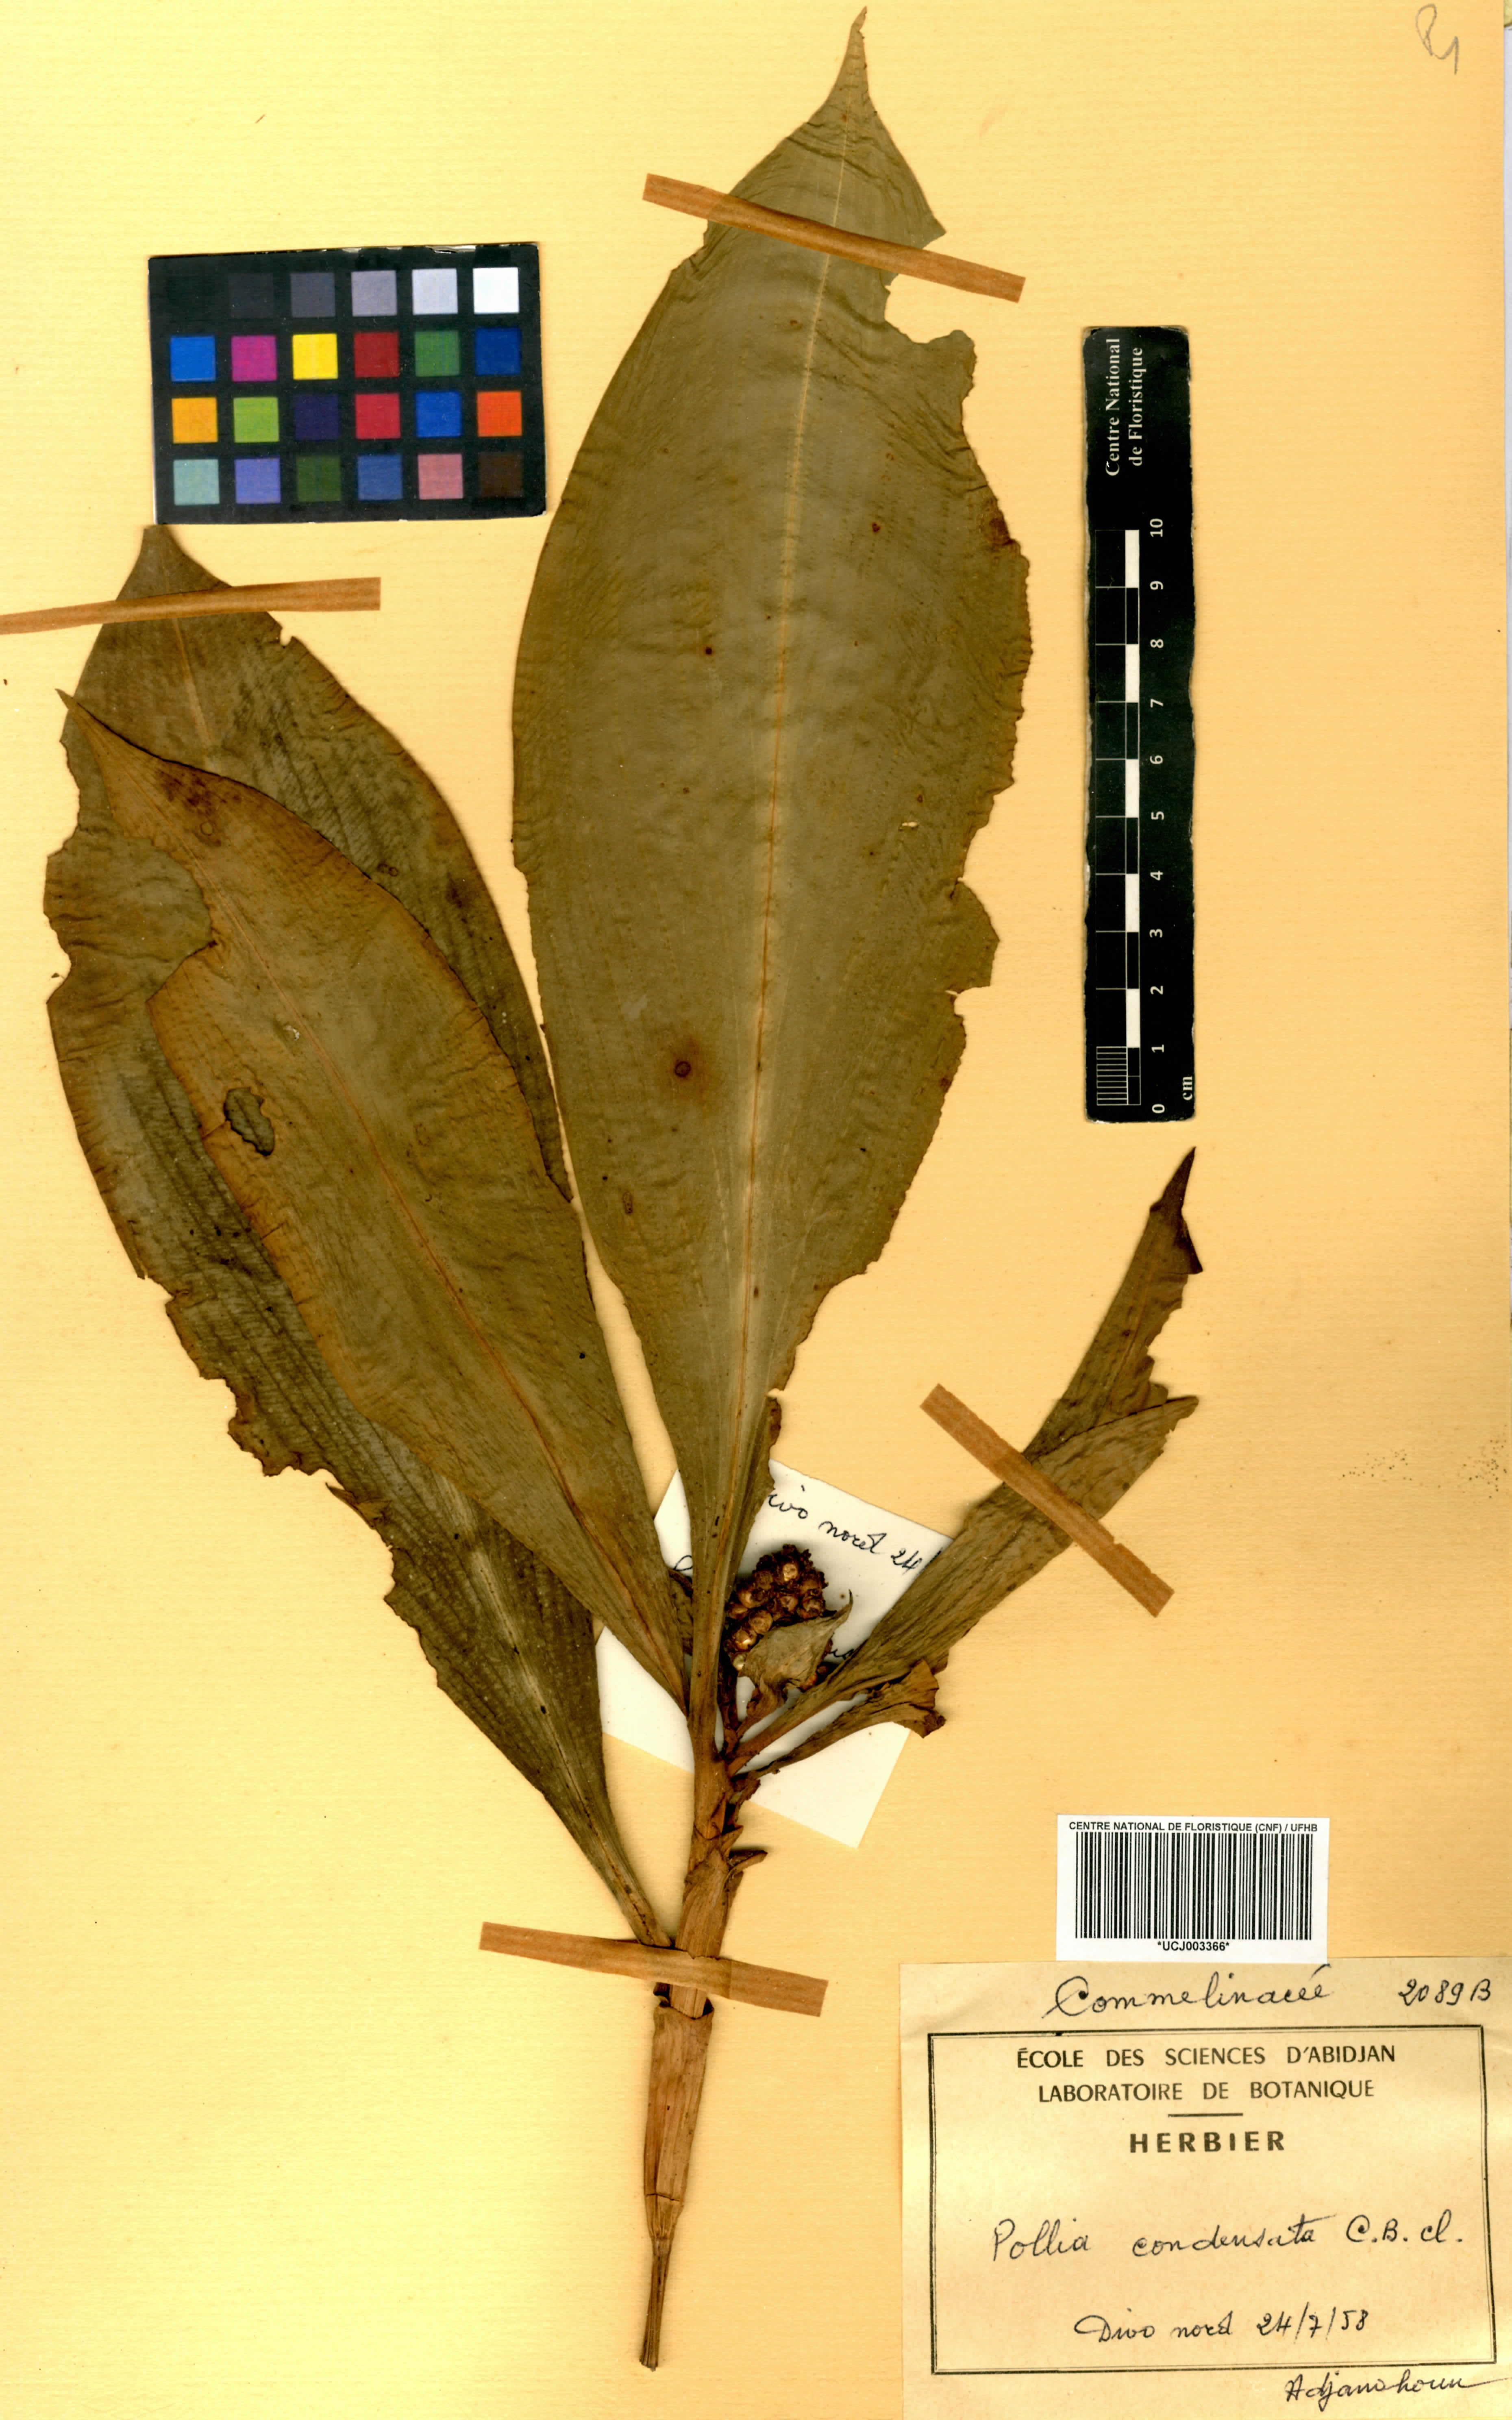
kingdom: Plantae
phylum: Tracheophyta
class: Liliopsida
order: Commelinales
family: Commelinaceae
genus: Pollia
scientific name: Pollia condensata
